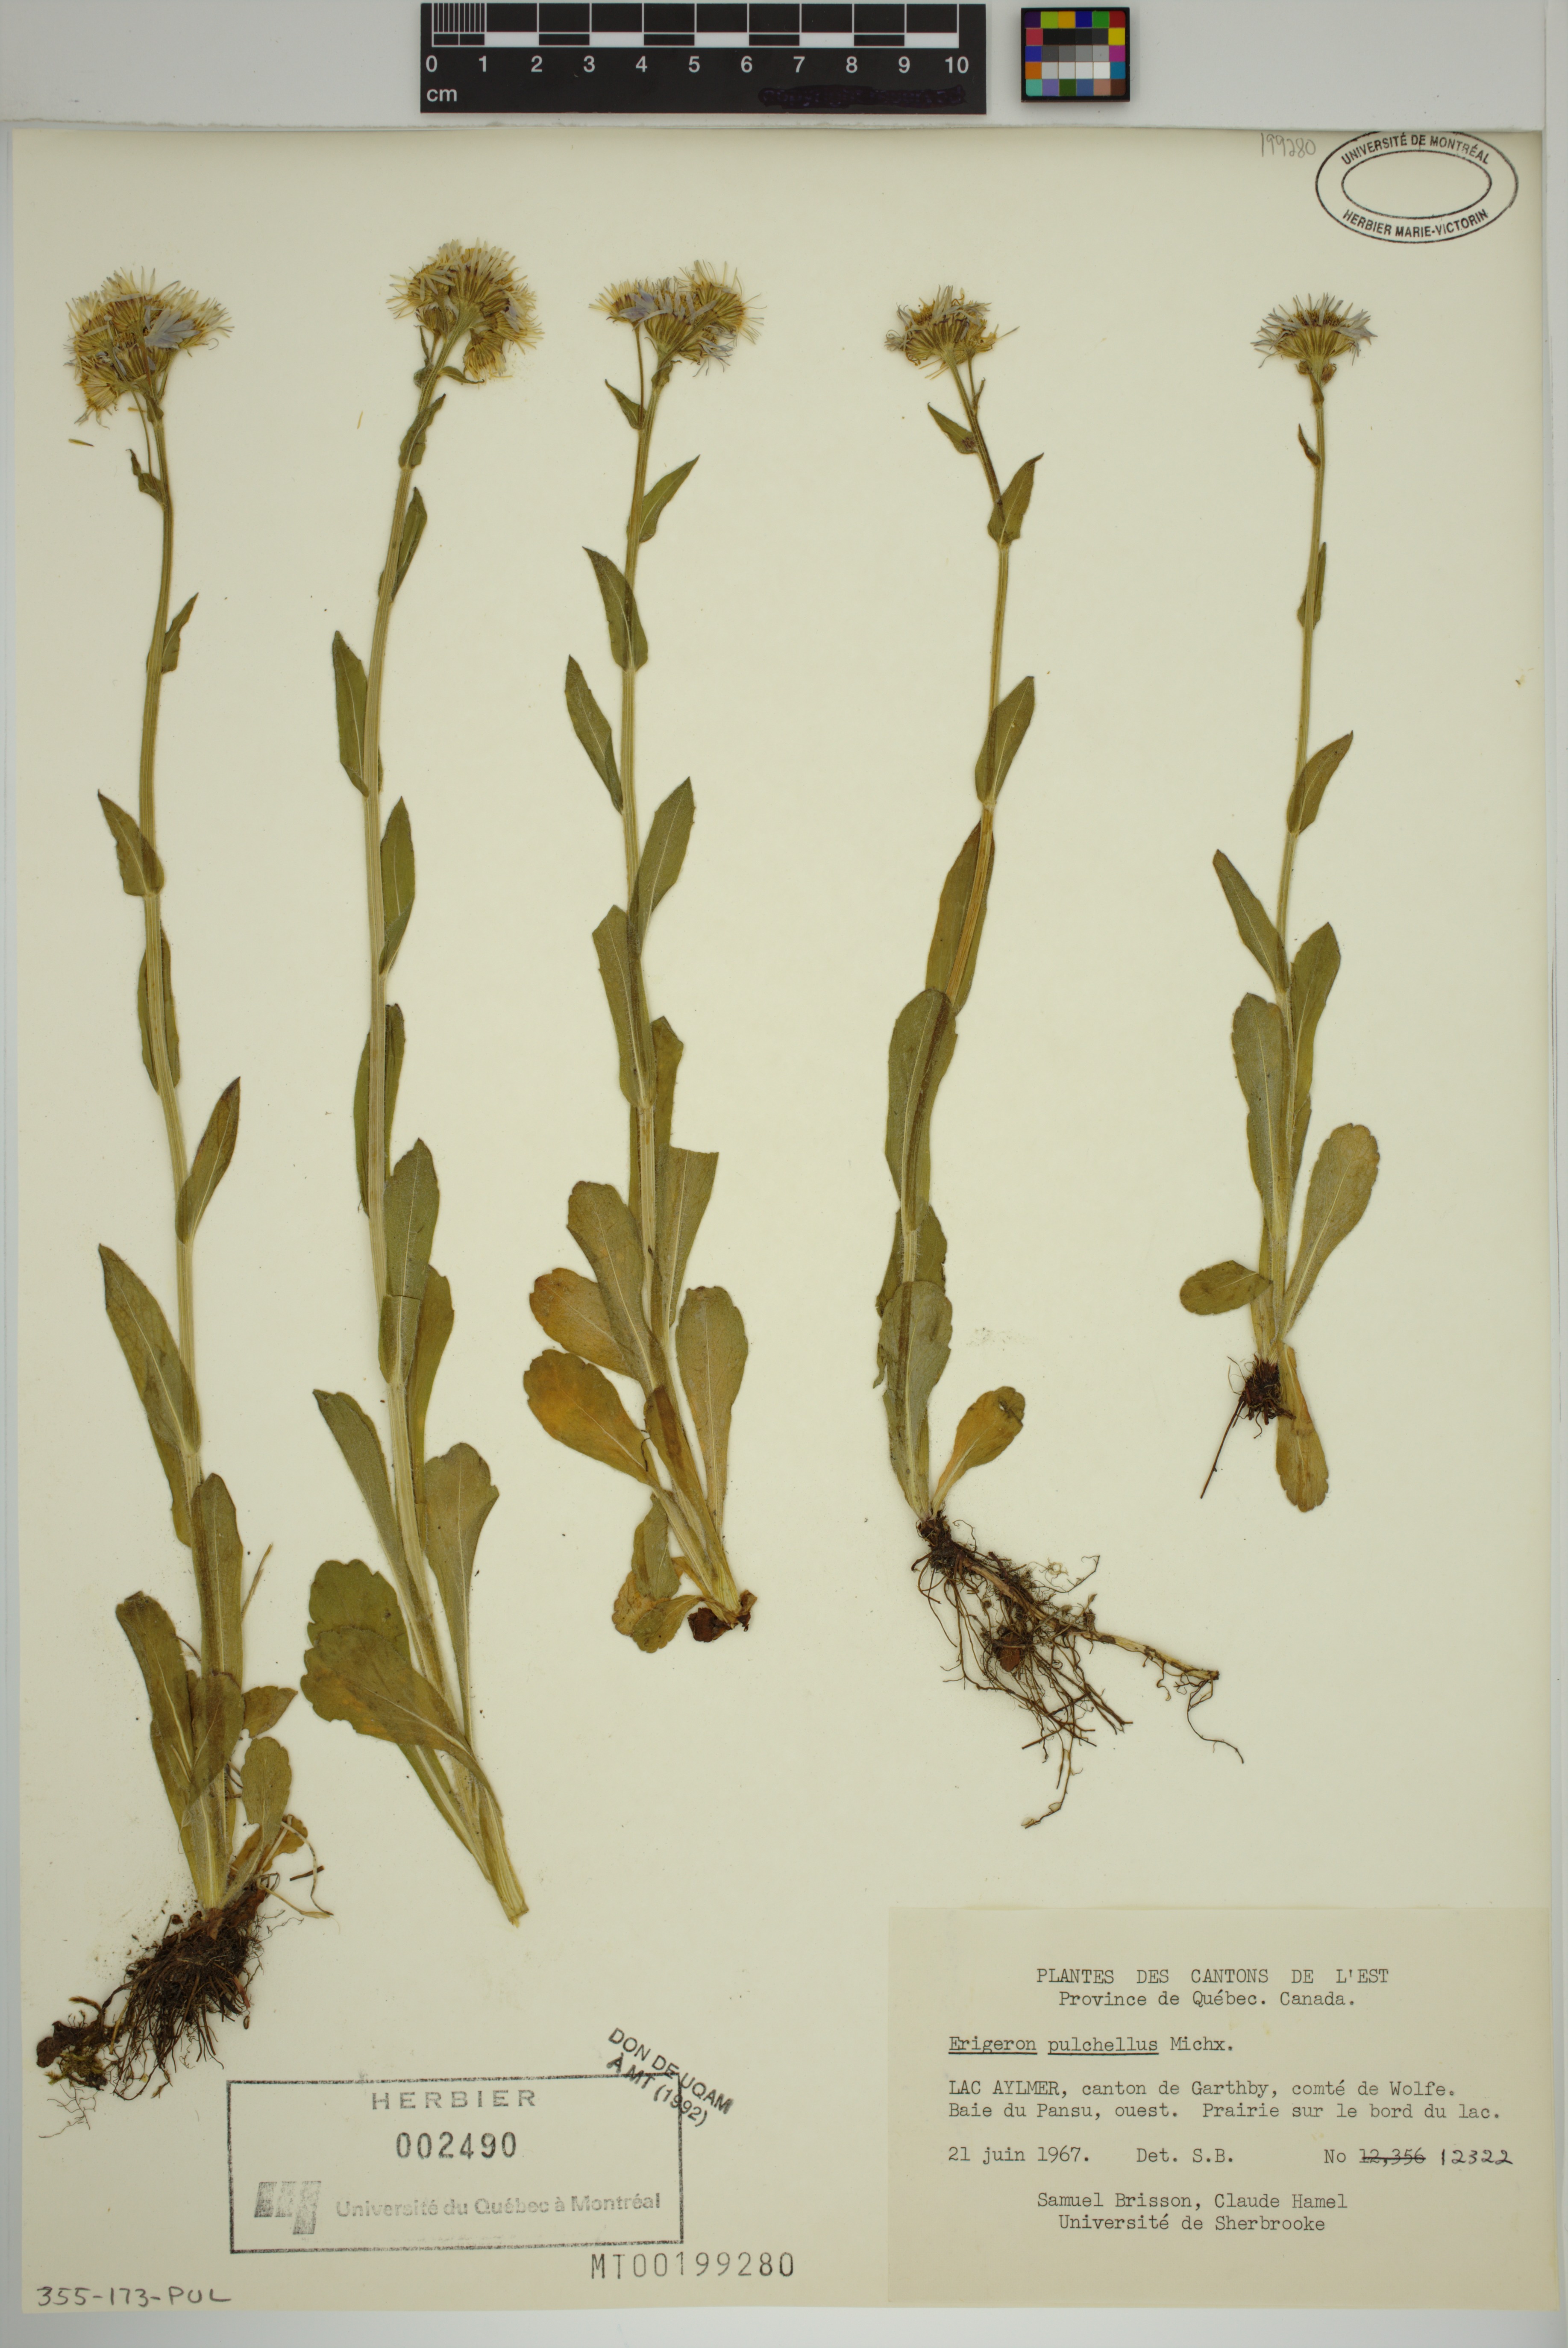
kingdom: Plantae
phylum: Tracheophyta
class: Magnoliopsida
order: Asterales
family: Asteraceae
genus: Erigeron
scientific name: Erigeron pulchellus
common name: Hairy fleabane
